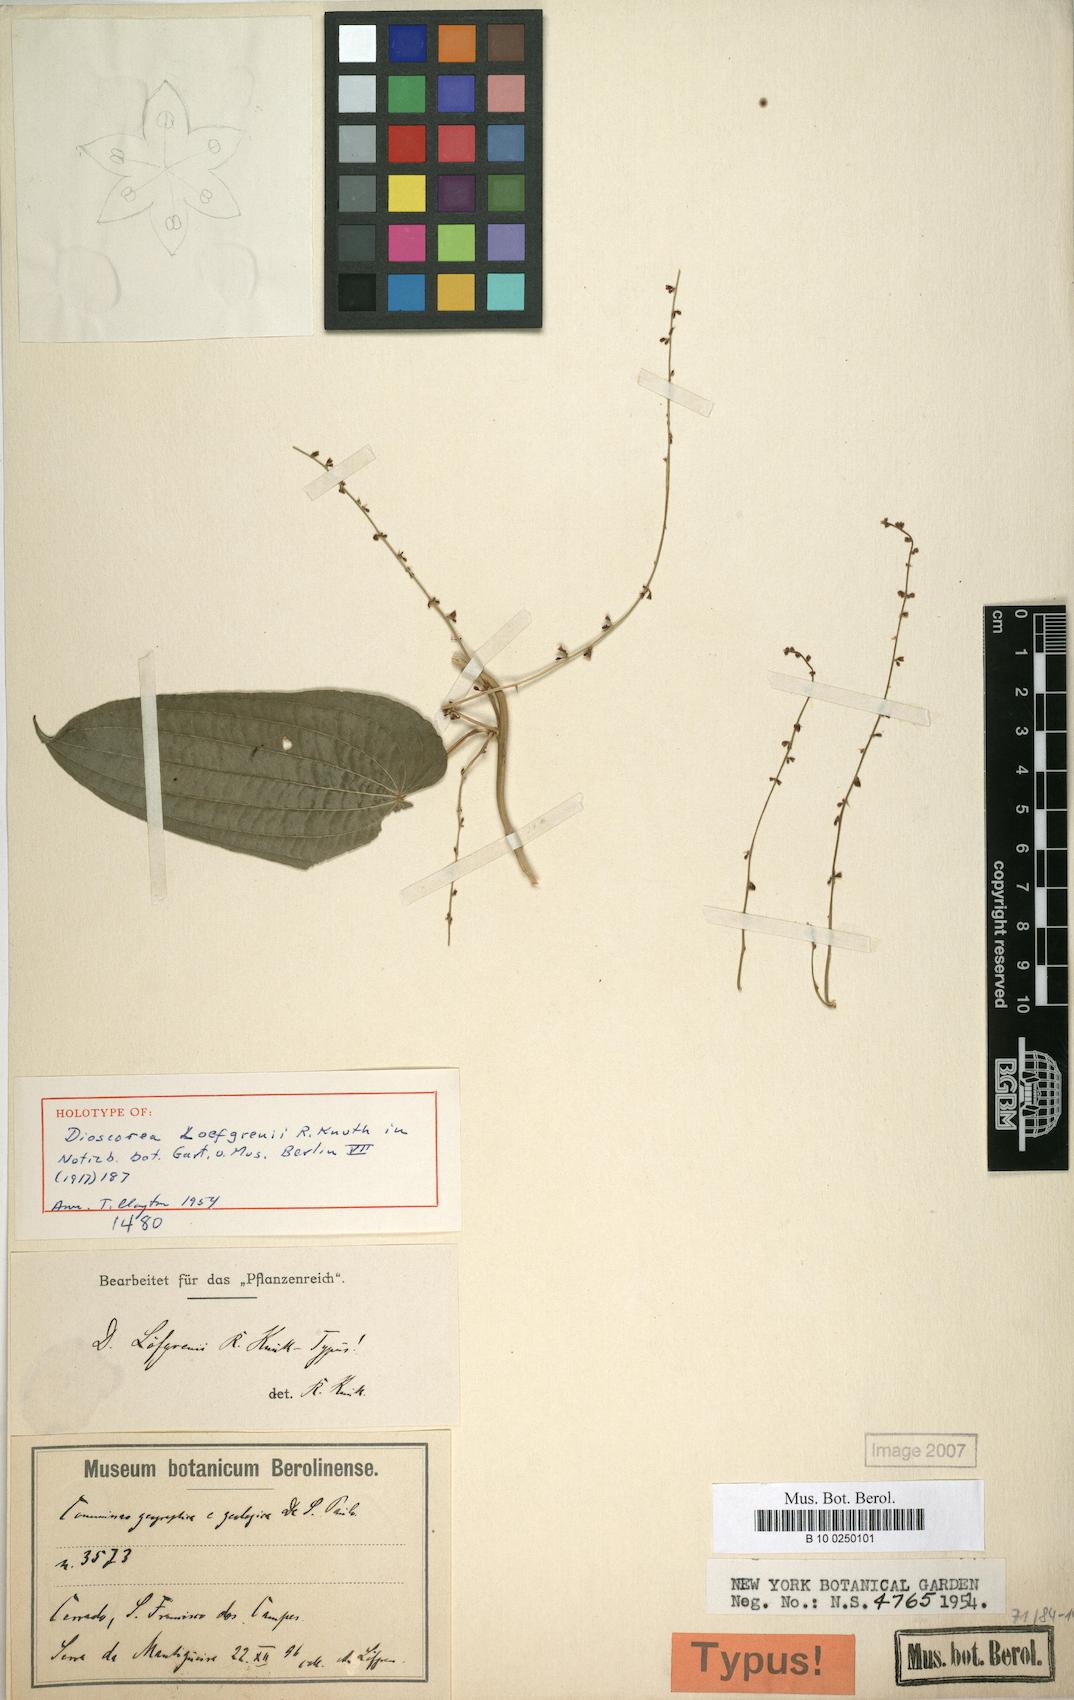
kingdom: Plantae
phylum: Tracheophyta
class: Liliopsida
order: Dioscoreales
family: Dioscoreaceae
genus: Dioscorea
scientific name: Dioscorea loefgrenii
